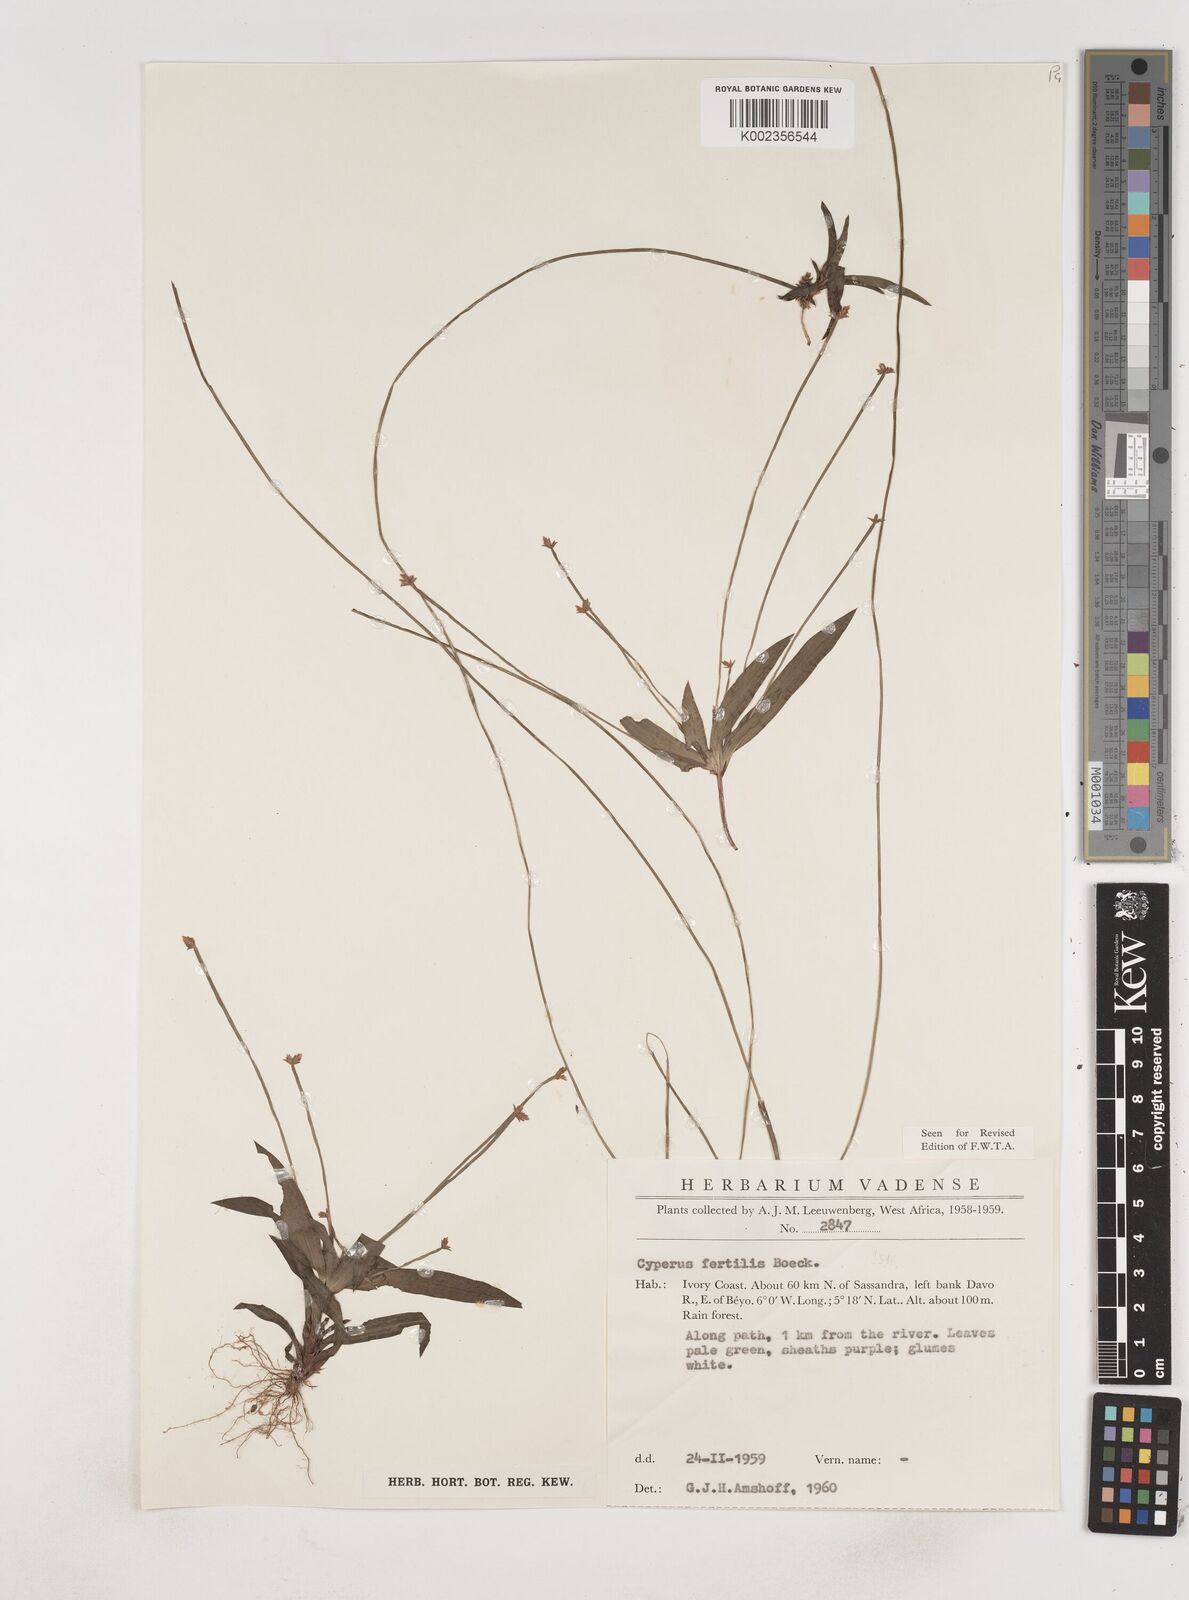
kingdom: Plantae
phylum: Tracheophyta
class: Liliopsida
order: Poales
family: Cyperaceae
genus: Cyperus
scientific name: Cyperus fertilis
